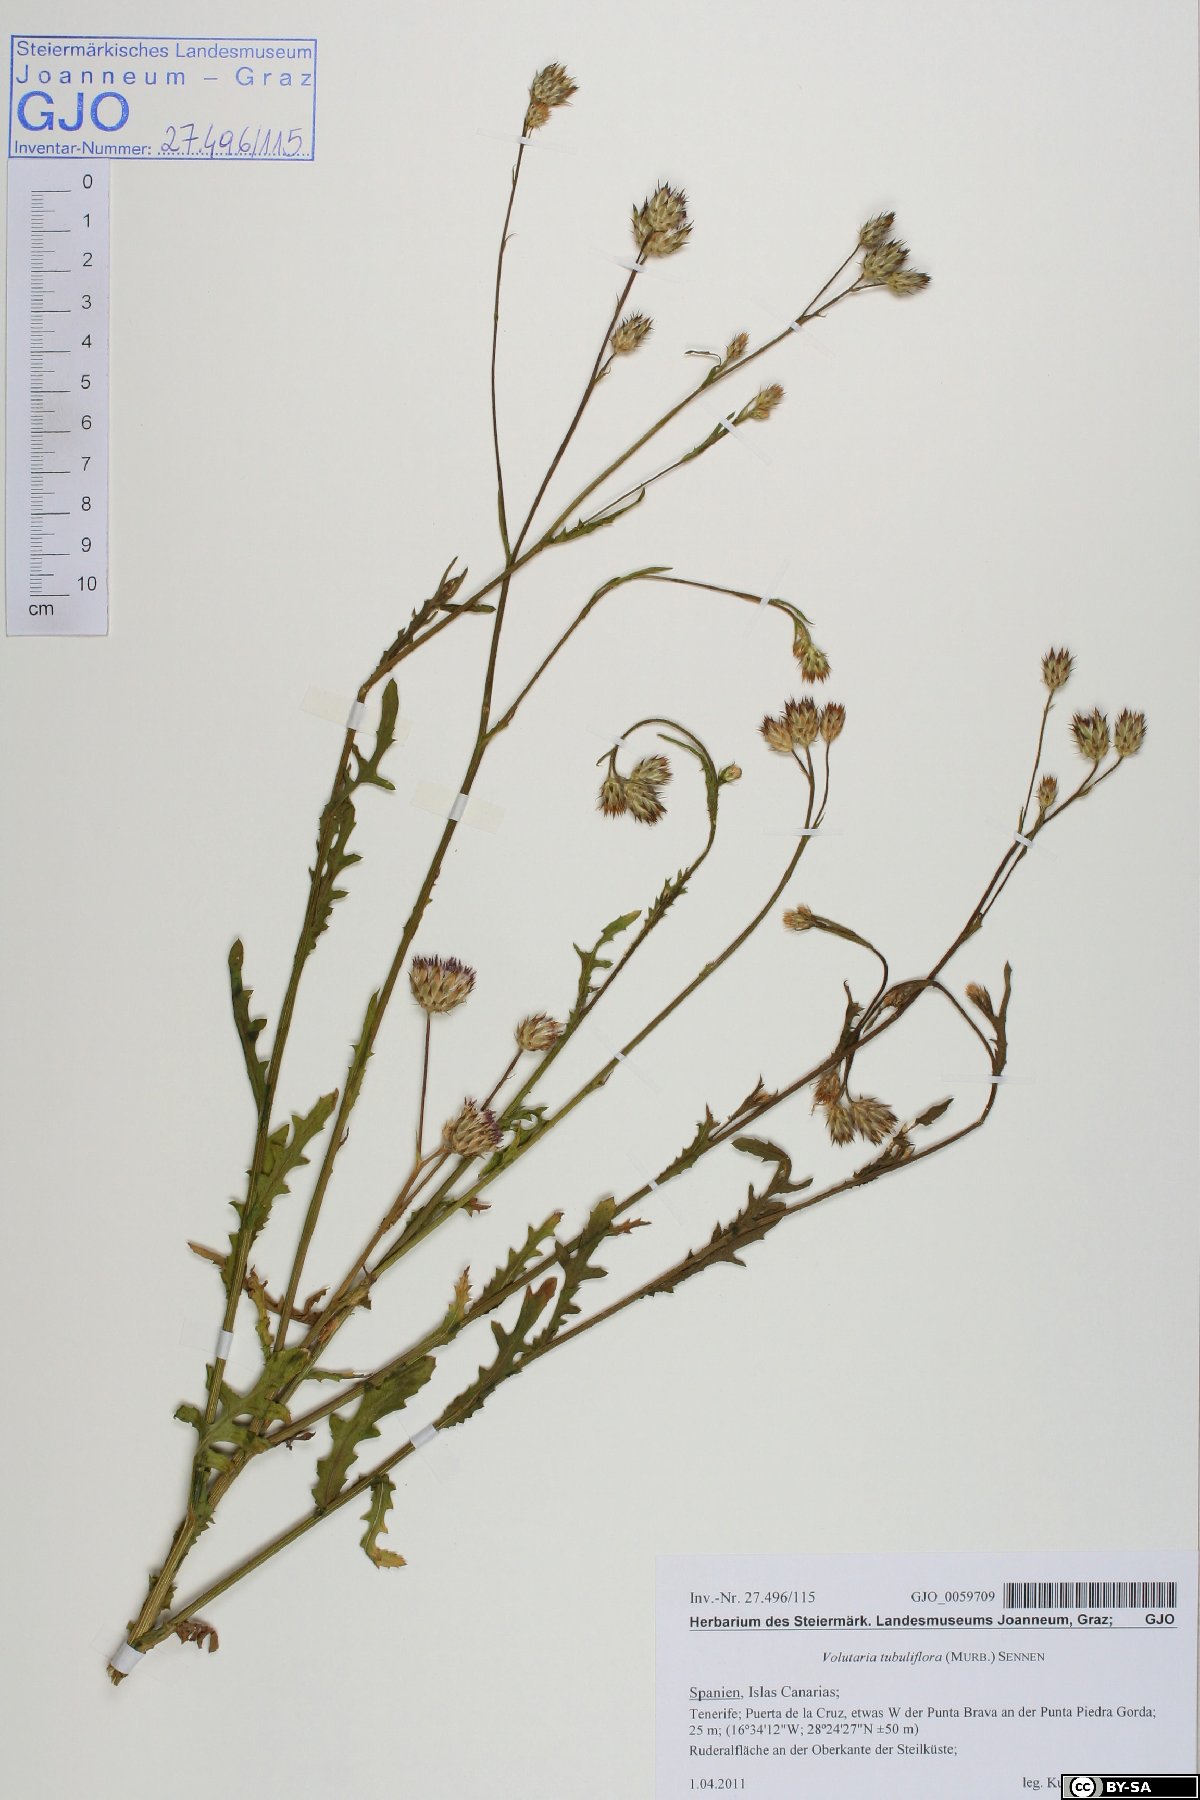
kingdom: Plantae
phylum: Tracheophyta
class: Magnoliopsida
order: Asterales
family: Asteraceae
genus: Volutaria
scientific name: Volutaria tubuliflora
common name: Desert knapweed
